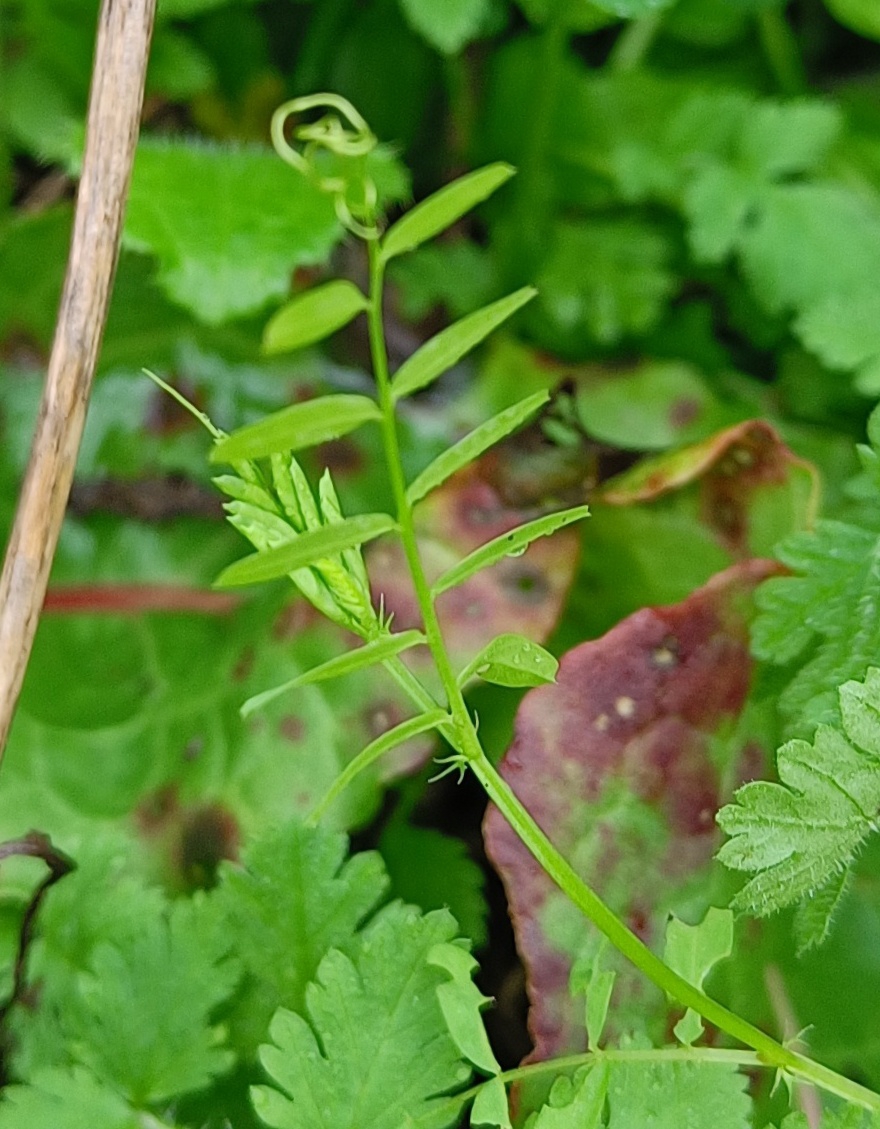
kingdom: Plantae
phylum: Tracheophyta
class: Magnoliopsida
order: Fabales
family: Fabaceae
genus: Vicia
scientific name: Vicia
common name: Vikkeslægten
